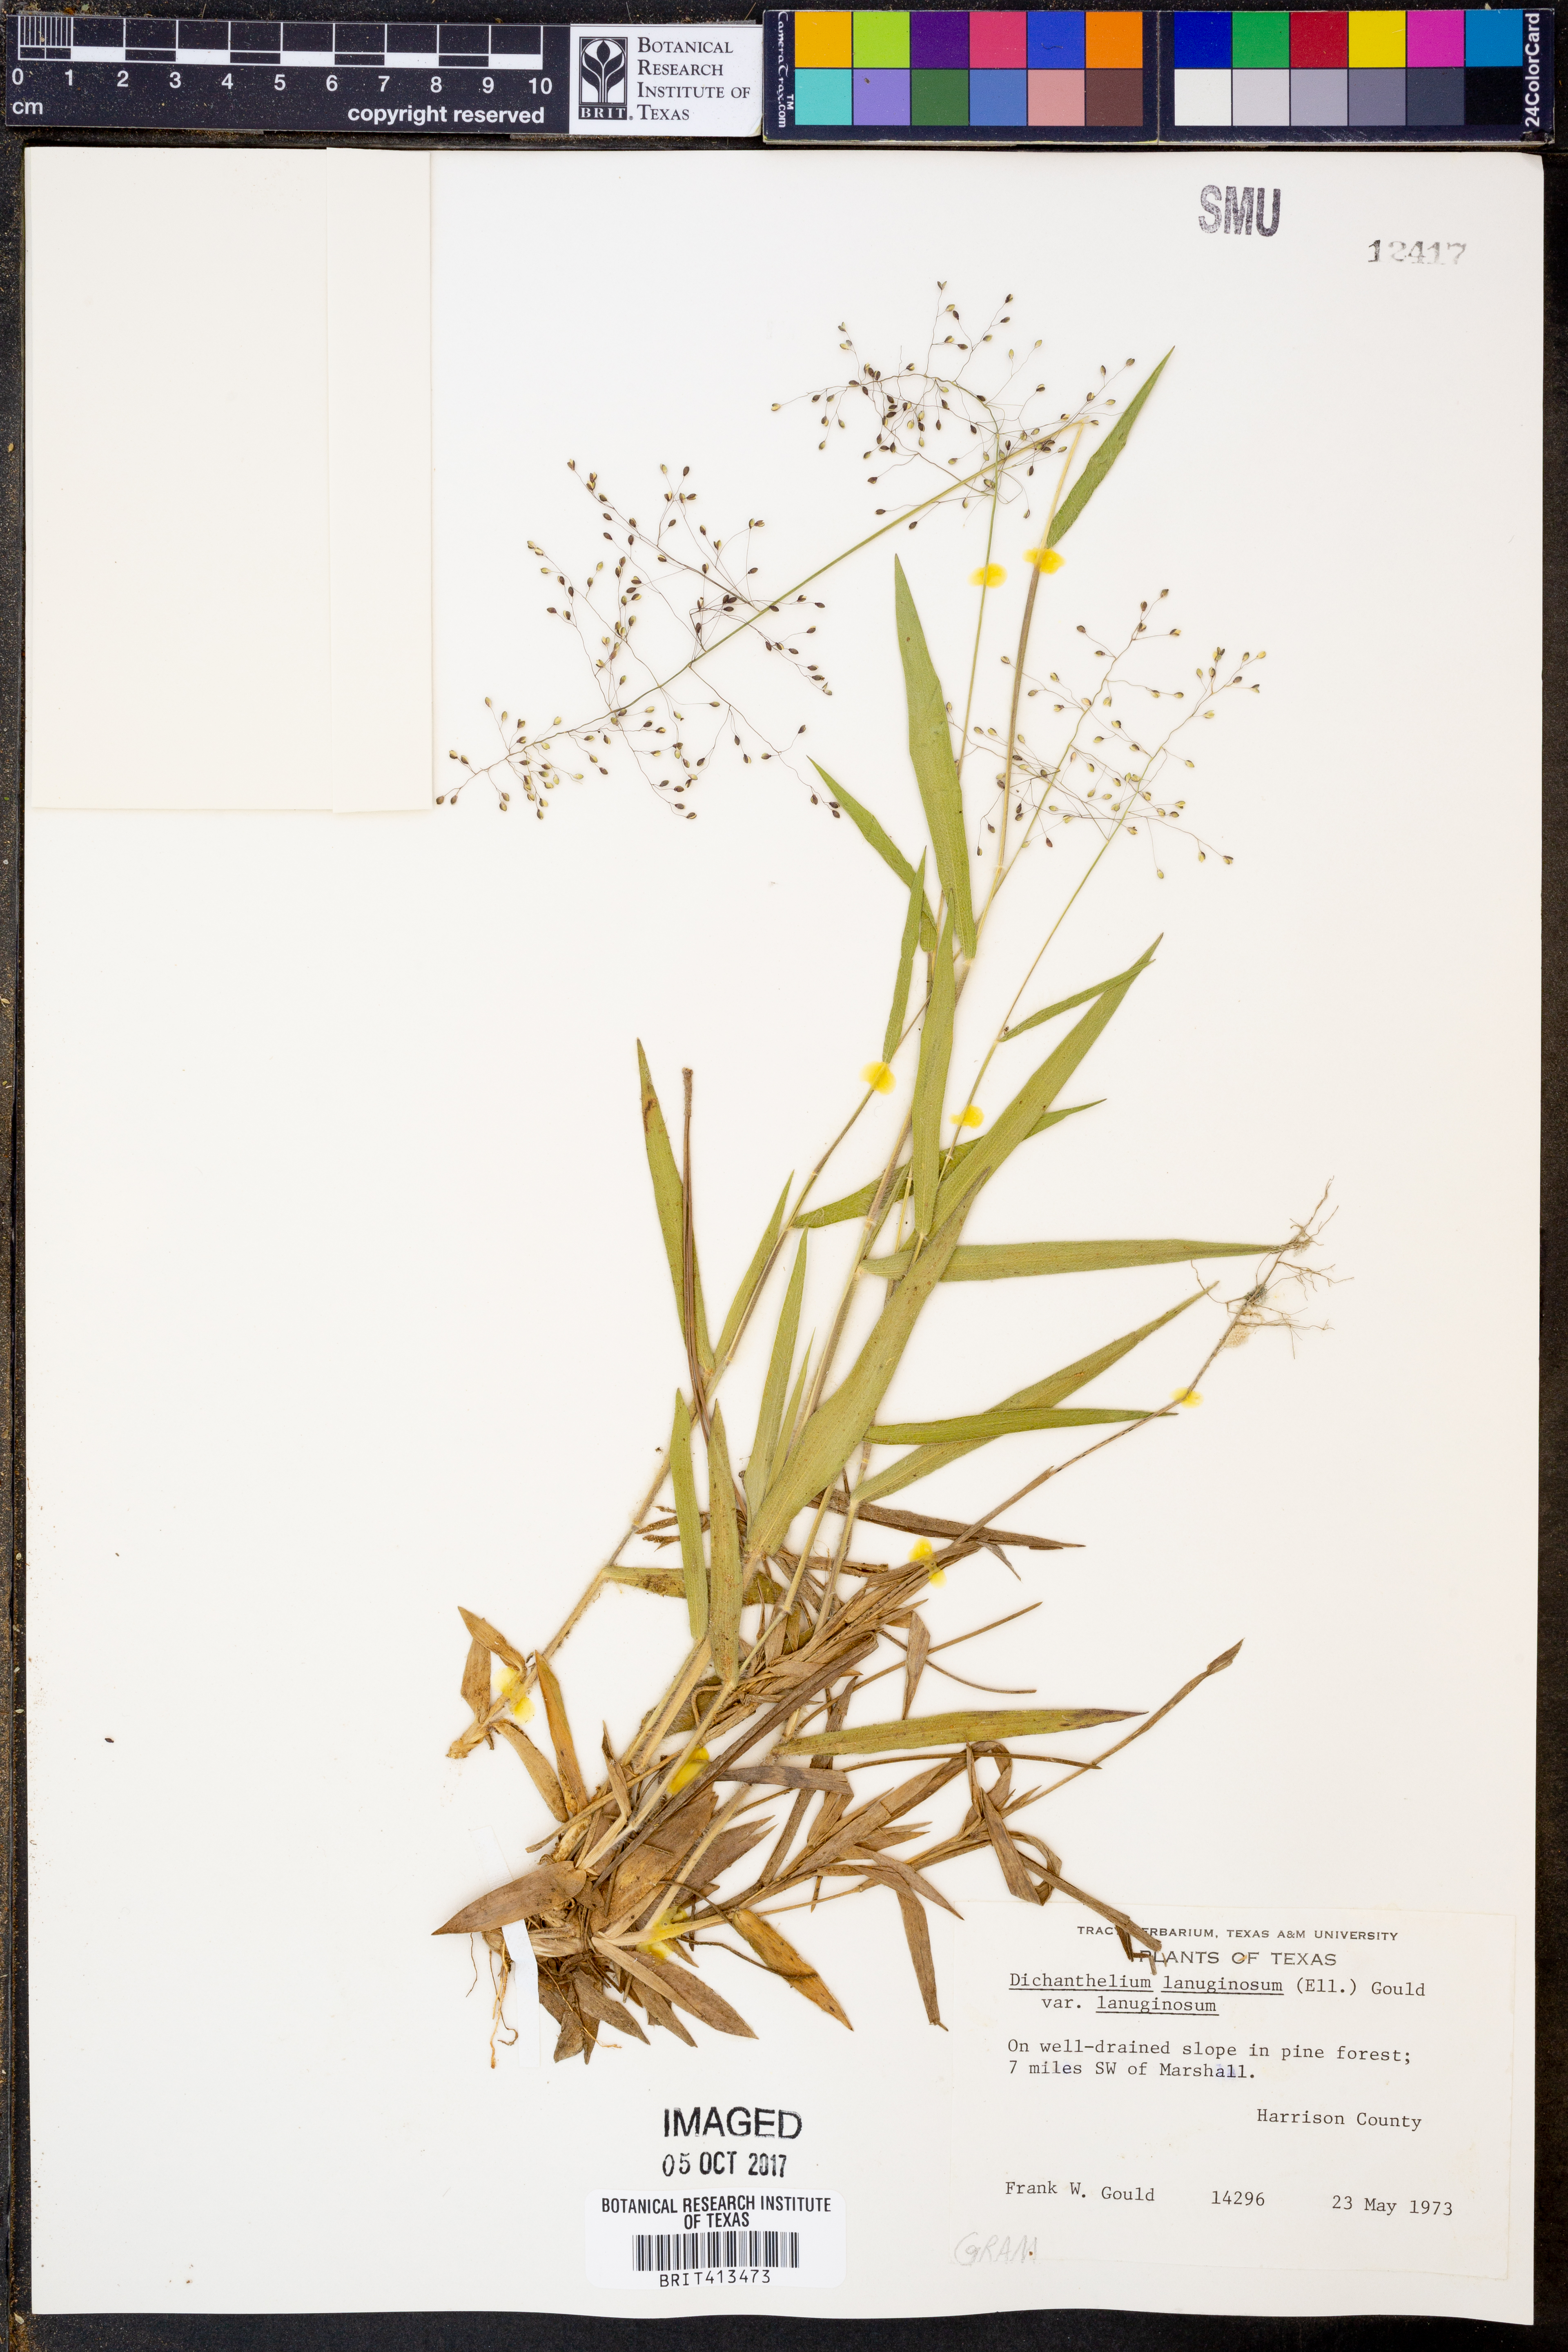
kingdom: Plantae
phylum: Tracheophyta
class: Liliopsida
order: Poales
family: Poaceae
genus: Dichanthelium
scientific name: Dichanthelium lanuginosum
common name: Woolly panicgrass
